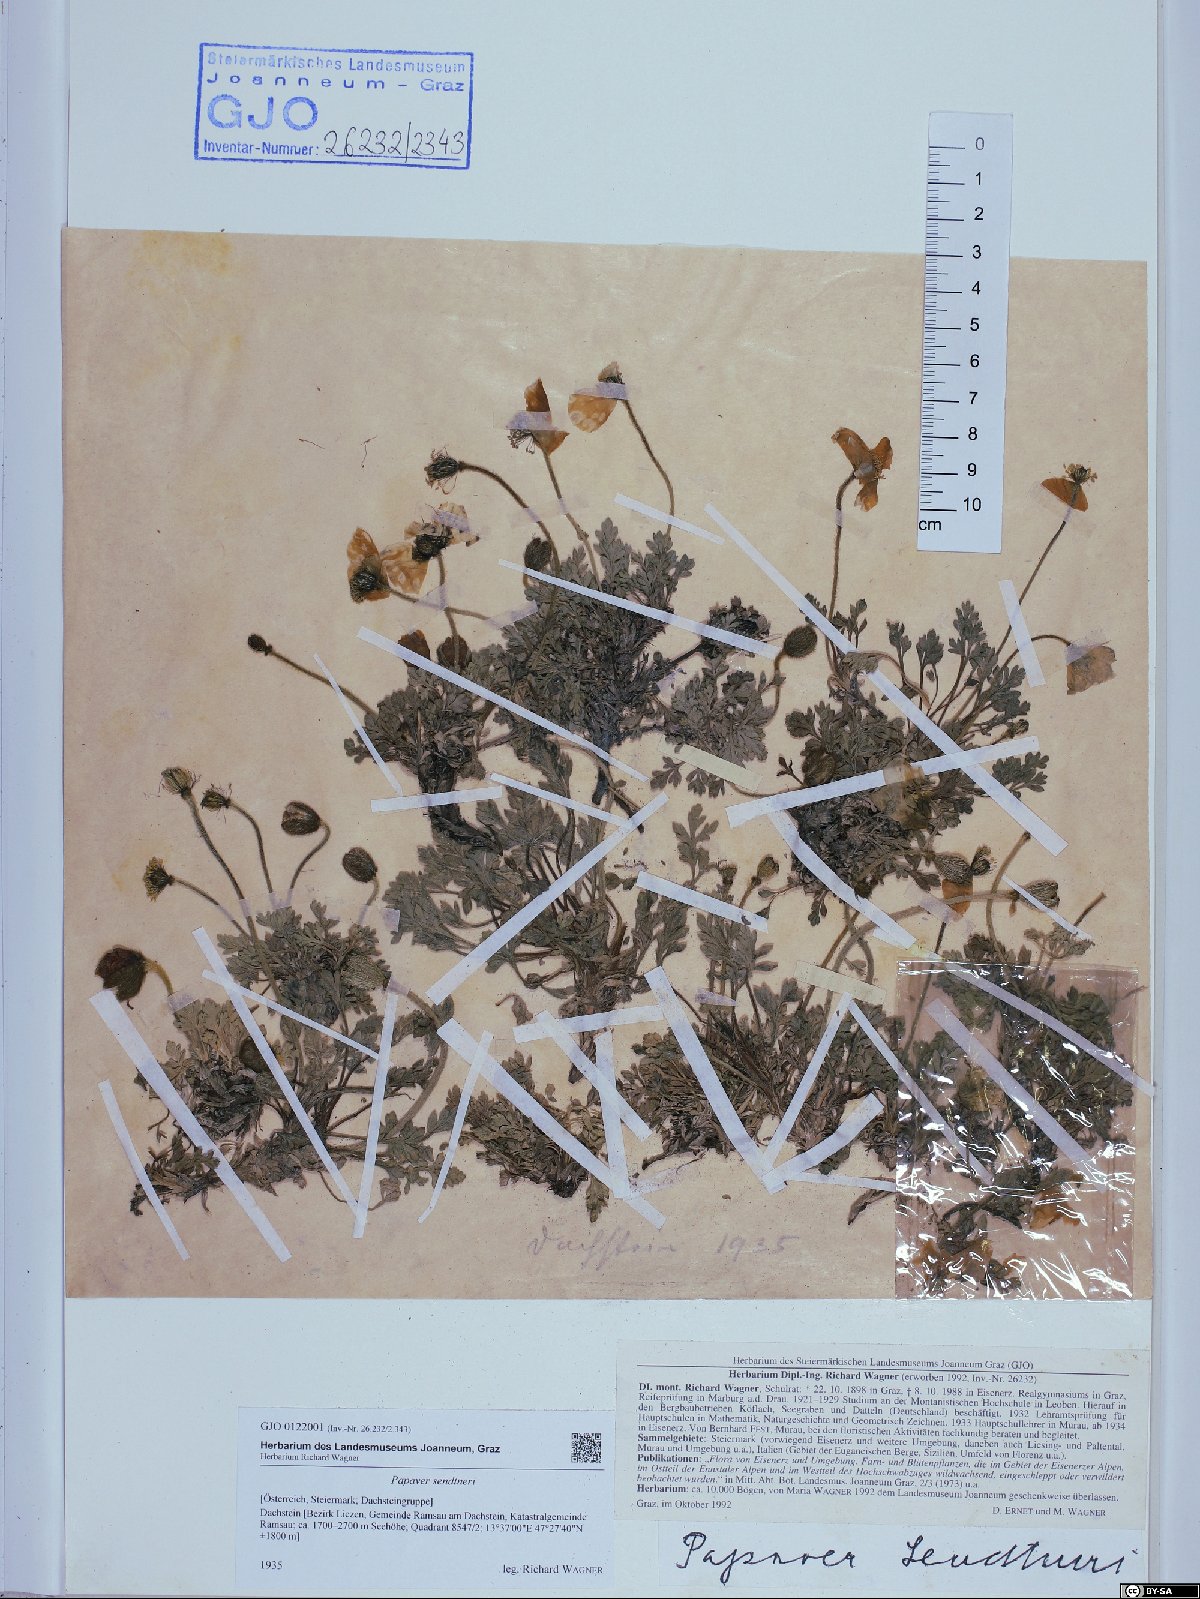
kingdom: Plantae
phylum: Tracheophyta
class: Magnoliopsida
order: Ranunculales
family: Papaveraceae
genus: Papaver
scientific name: Papaver alpinum
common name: Austrian poppy
